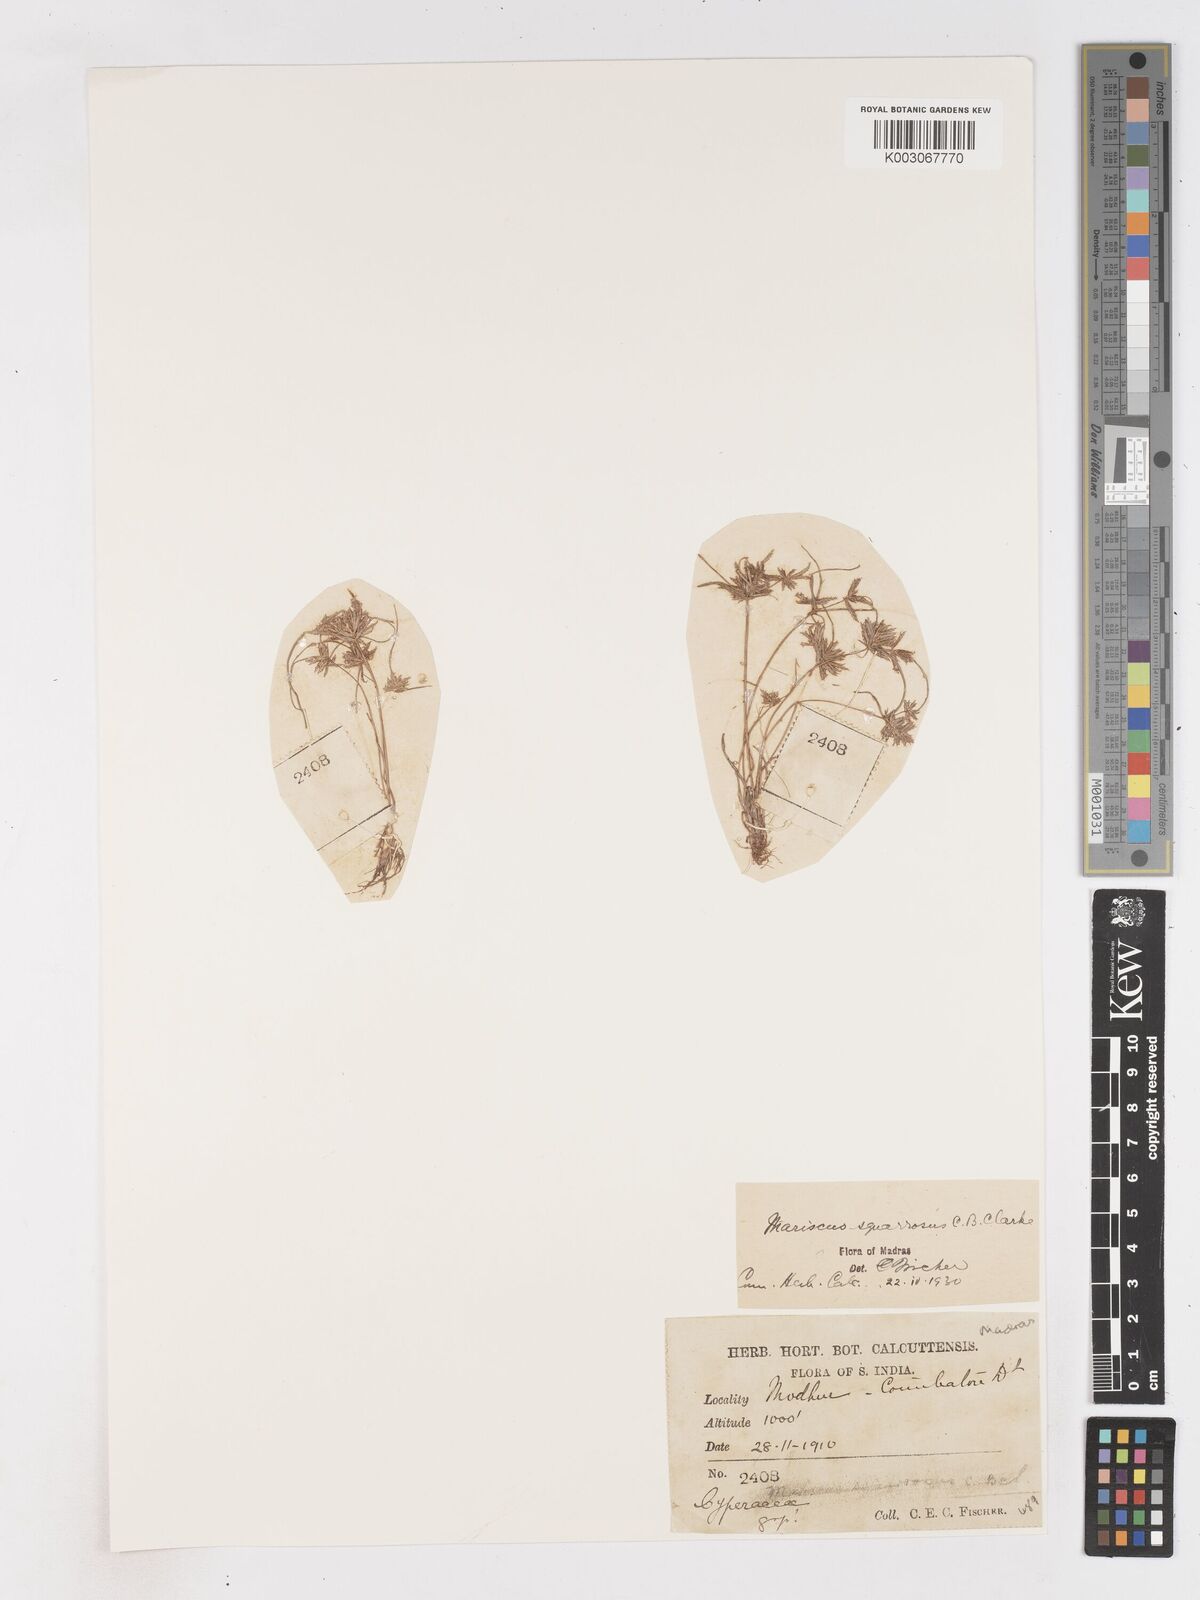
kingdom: Plantae
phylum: Tracheophyta
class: Liliopsida
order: Poales
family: Cyperaceae
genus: Cyperus
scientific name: Cyperus maderaspatanus
